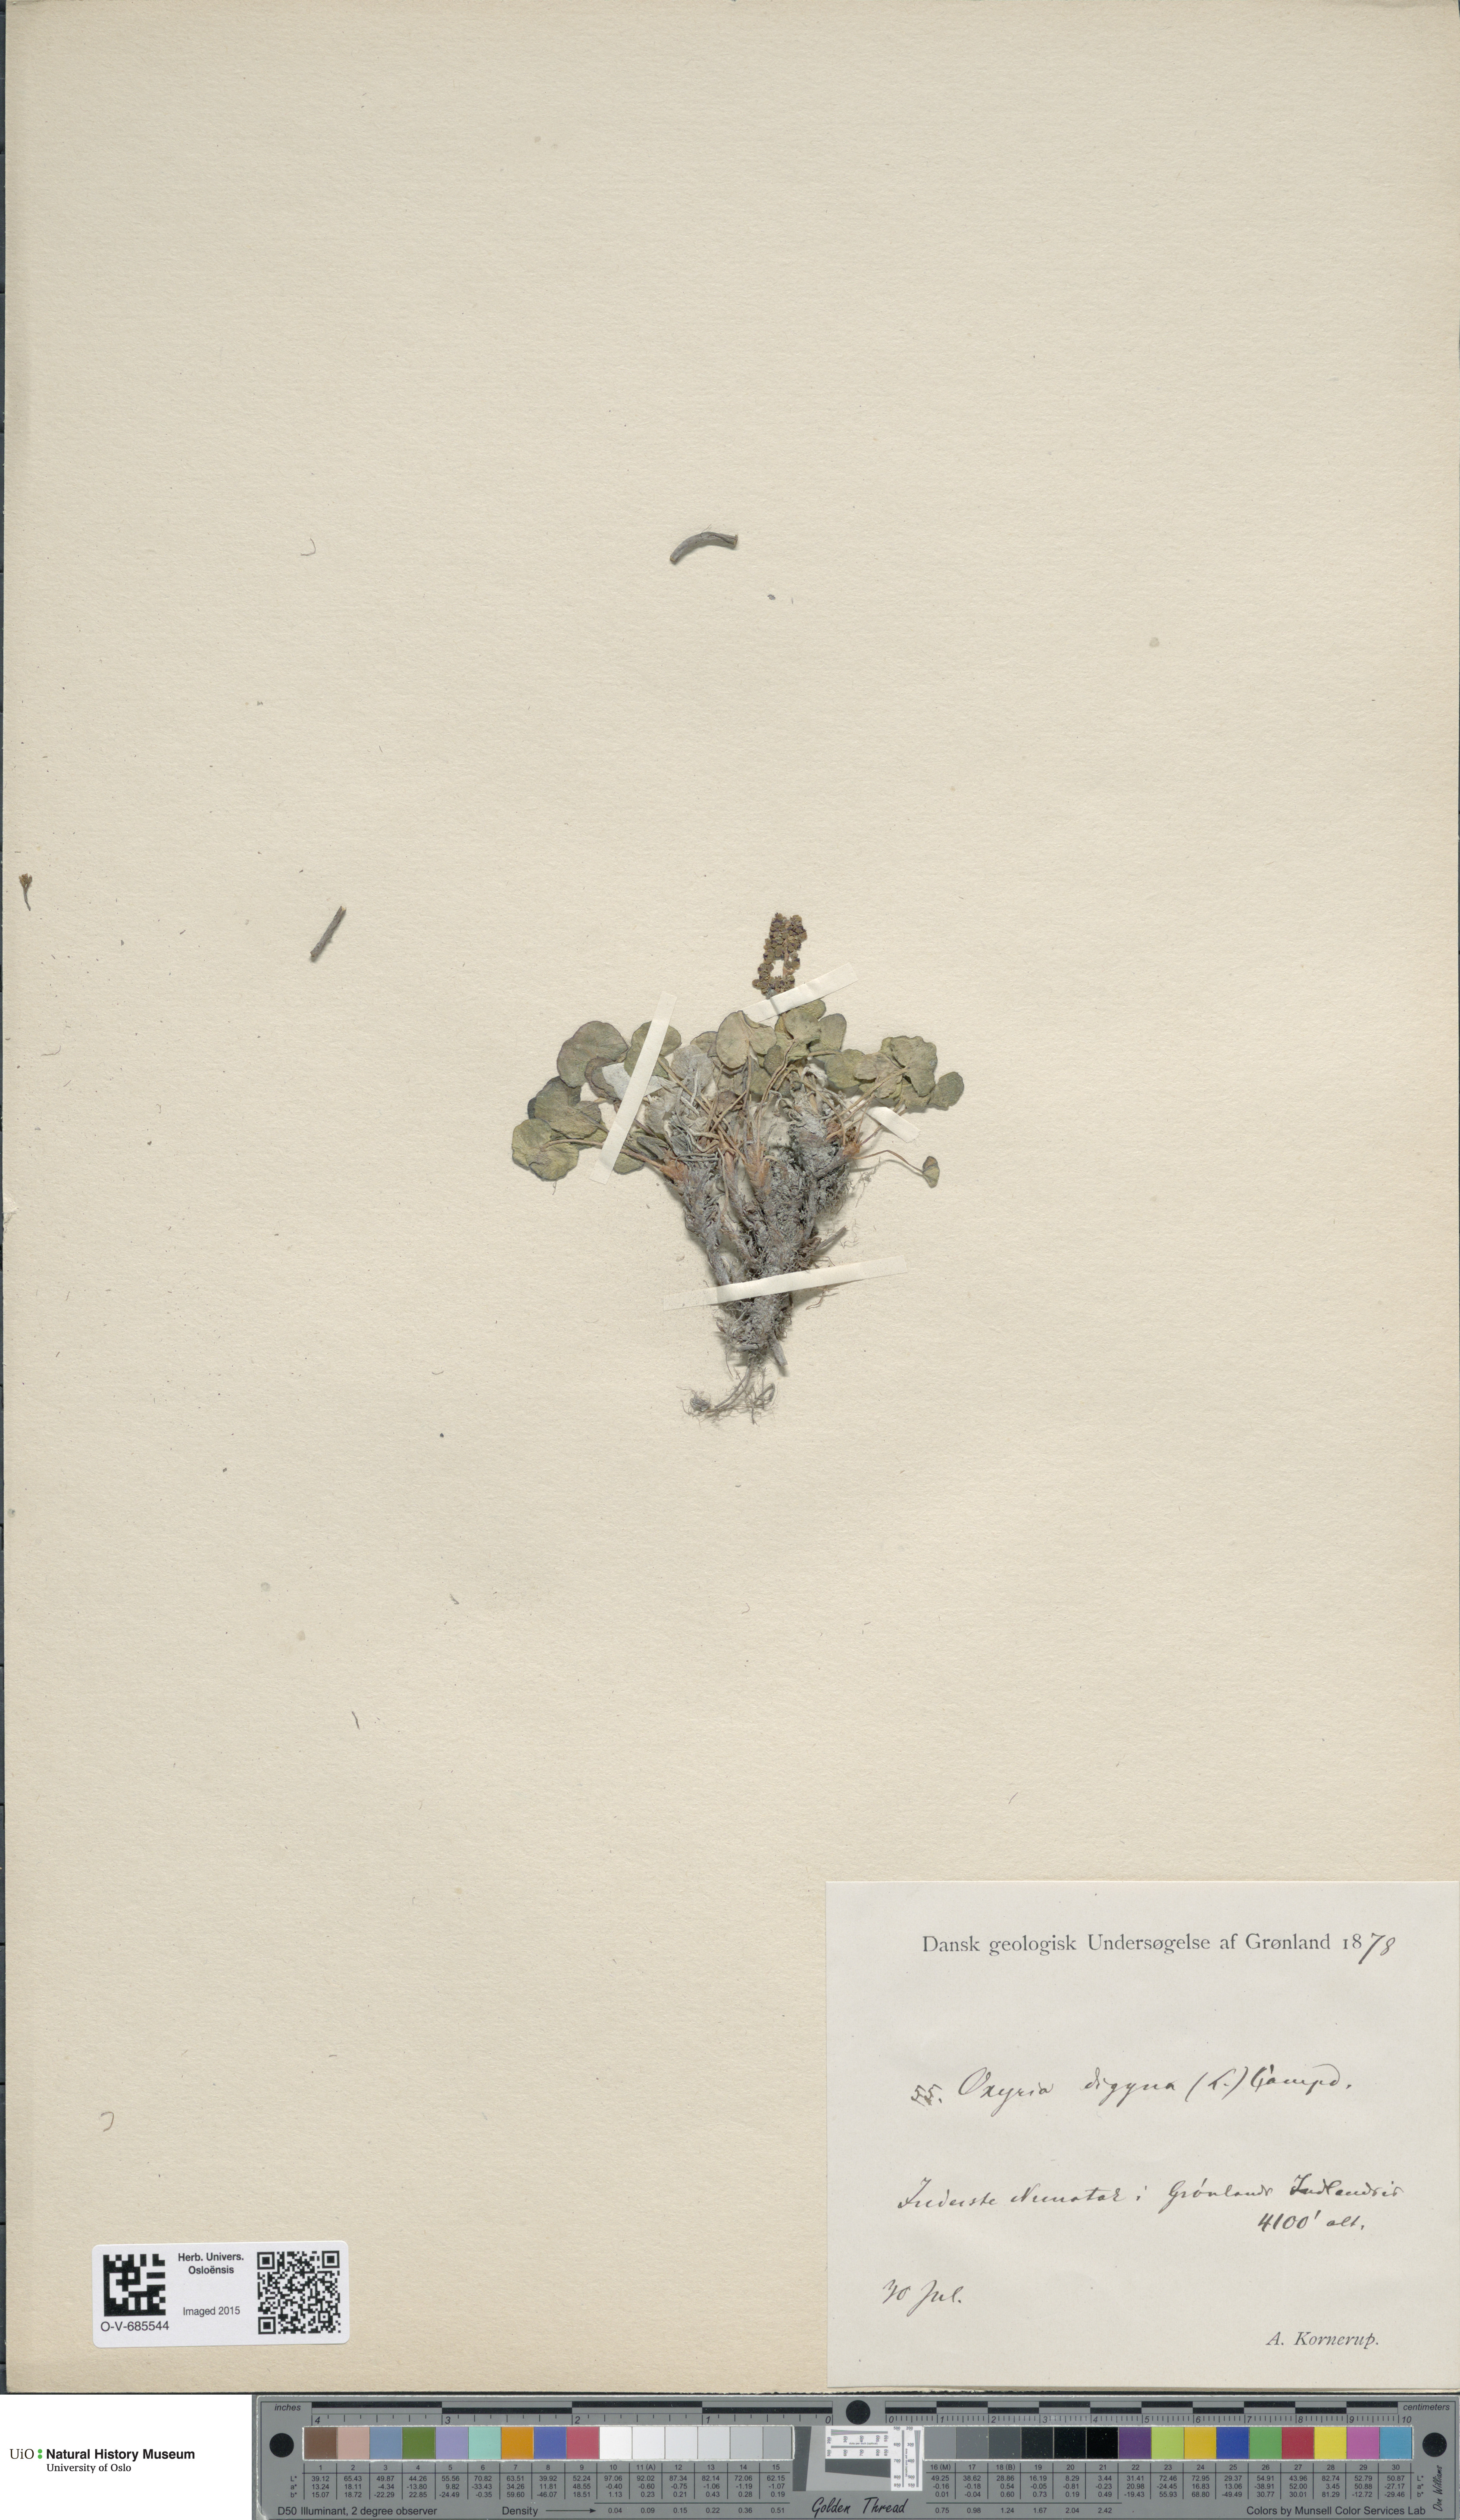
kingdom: Plantae
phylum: Tracheophyta
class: Magnoliopsida
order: Caryophyllales
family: Polygonaceae
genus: Oxyria
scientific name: Oxyria digyna
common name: Alpine mountain-sorrel
